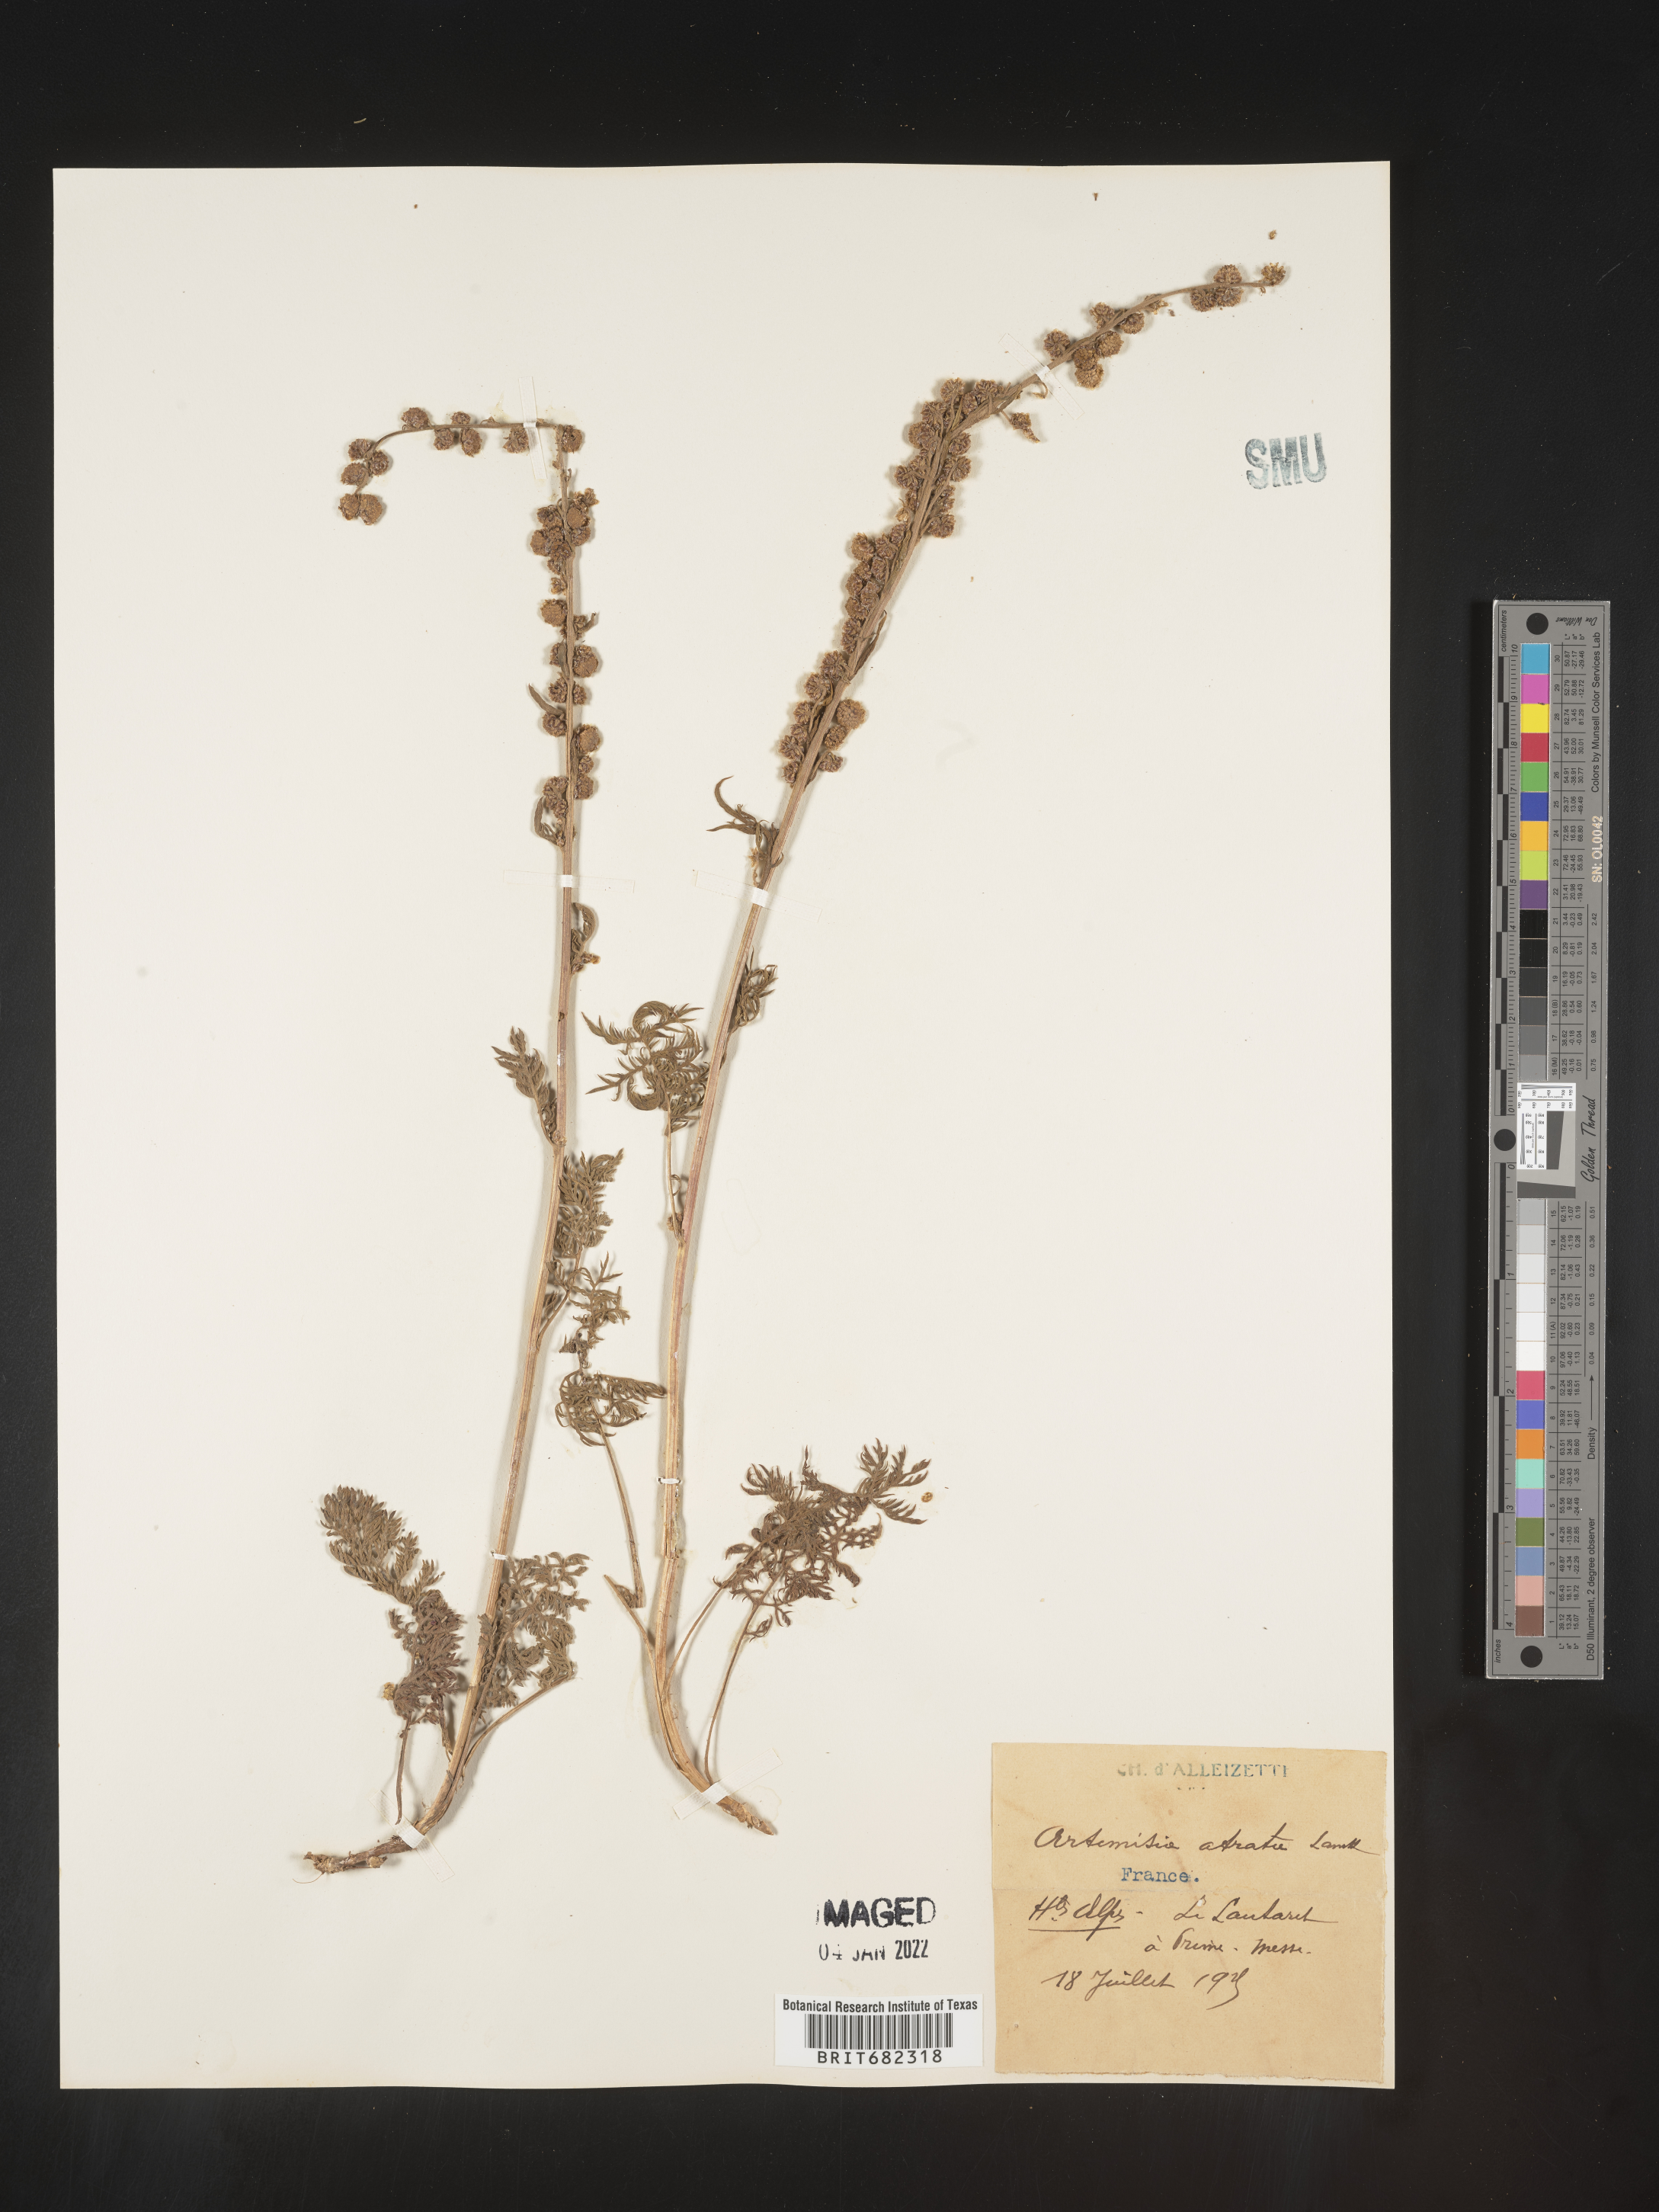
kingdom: Plantae
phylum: Tracheophyta
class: Magnoliopsida
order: Asterales
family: Asteraceae
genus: Artemisia
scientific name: Artemisia
